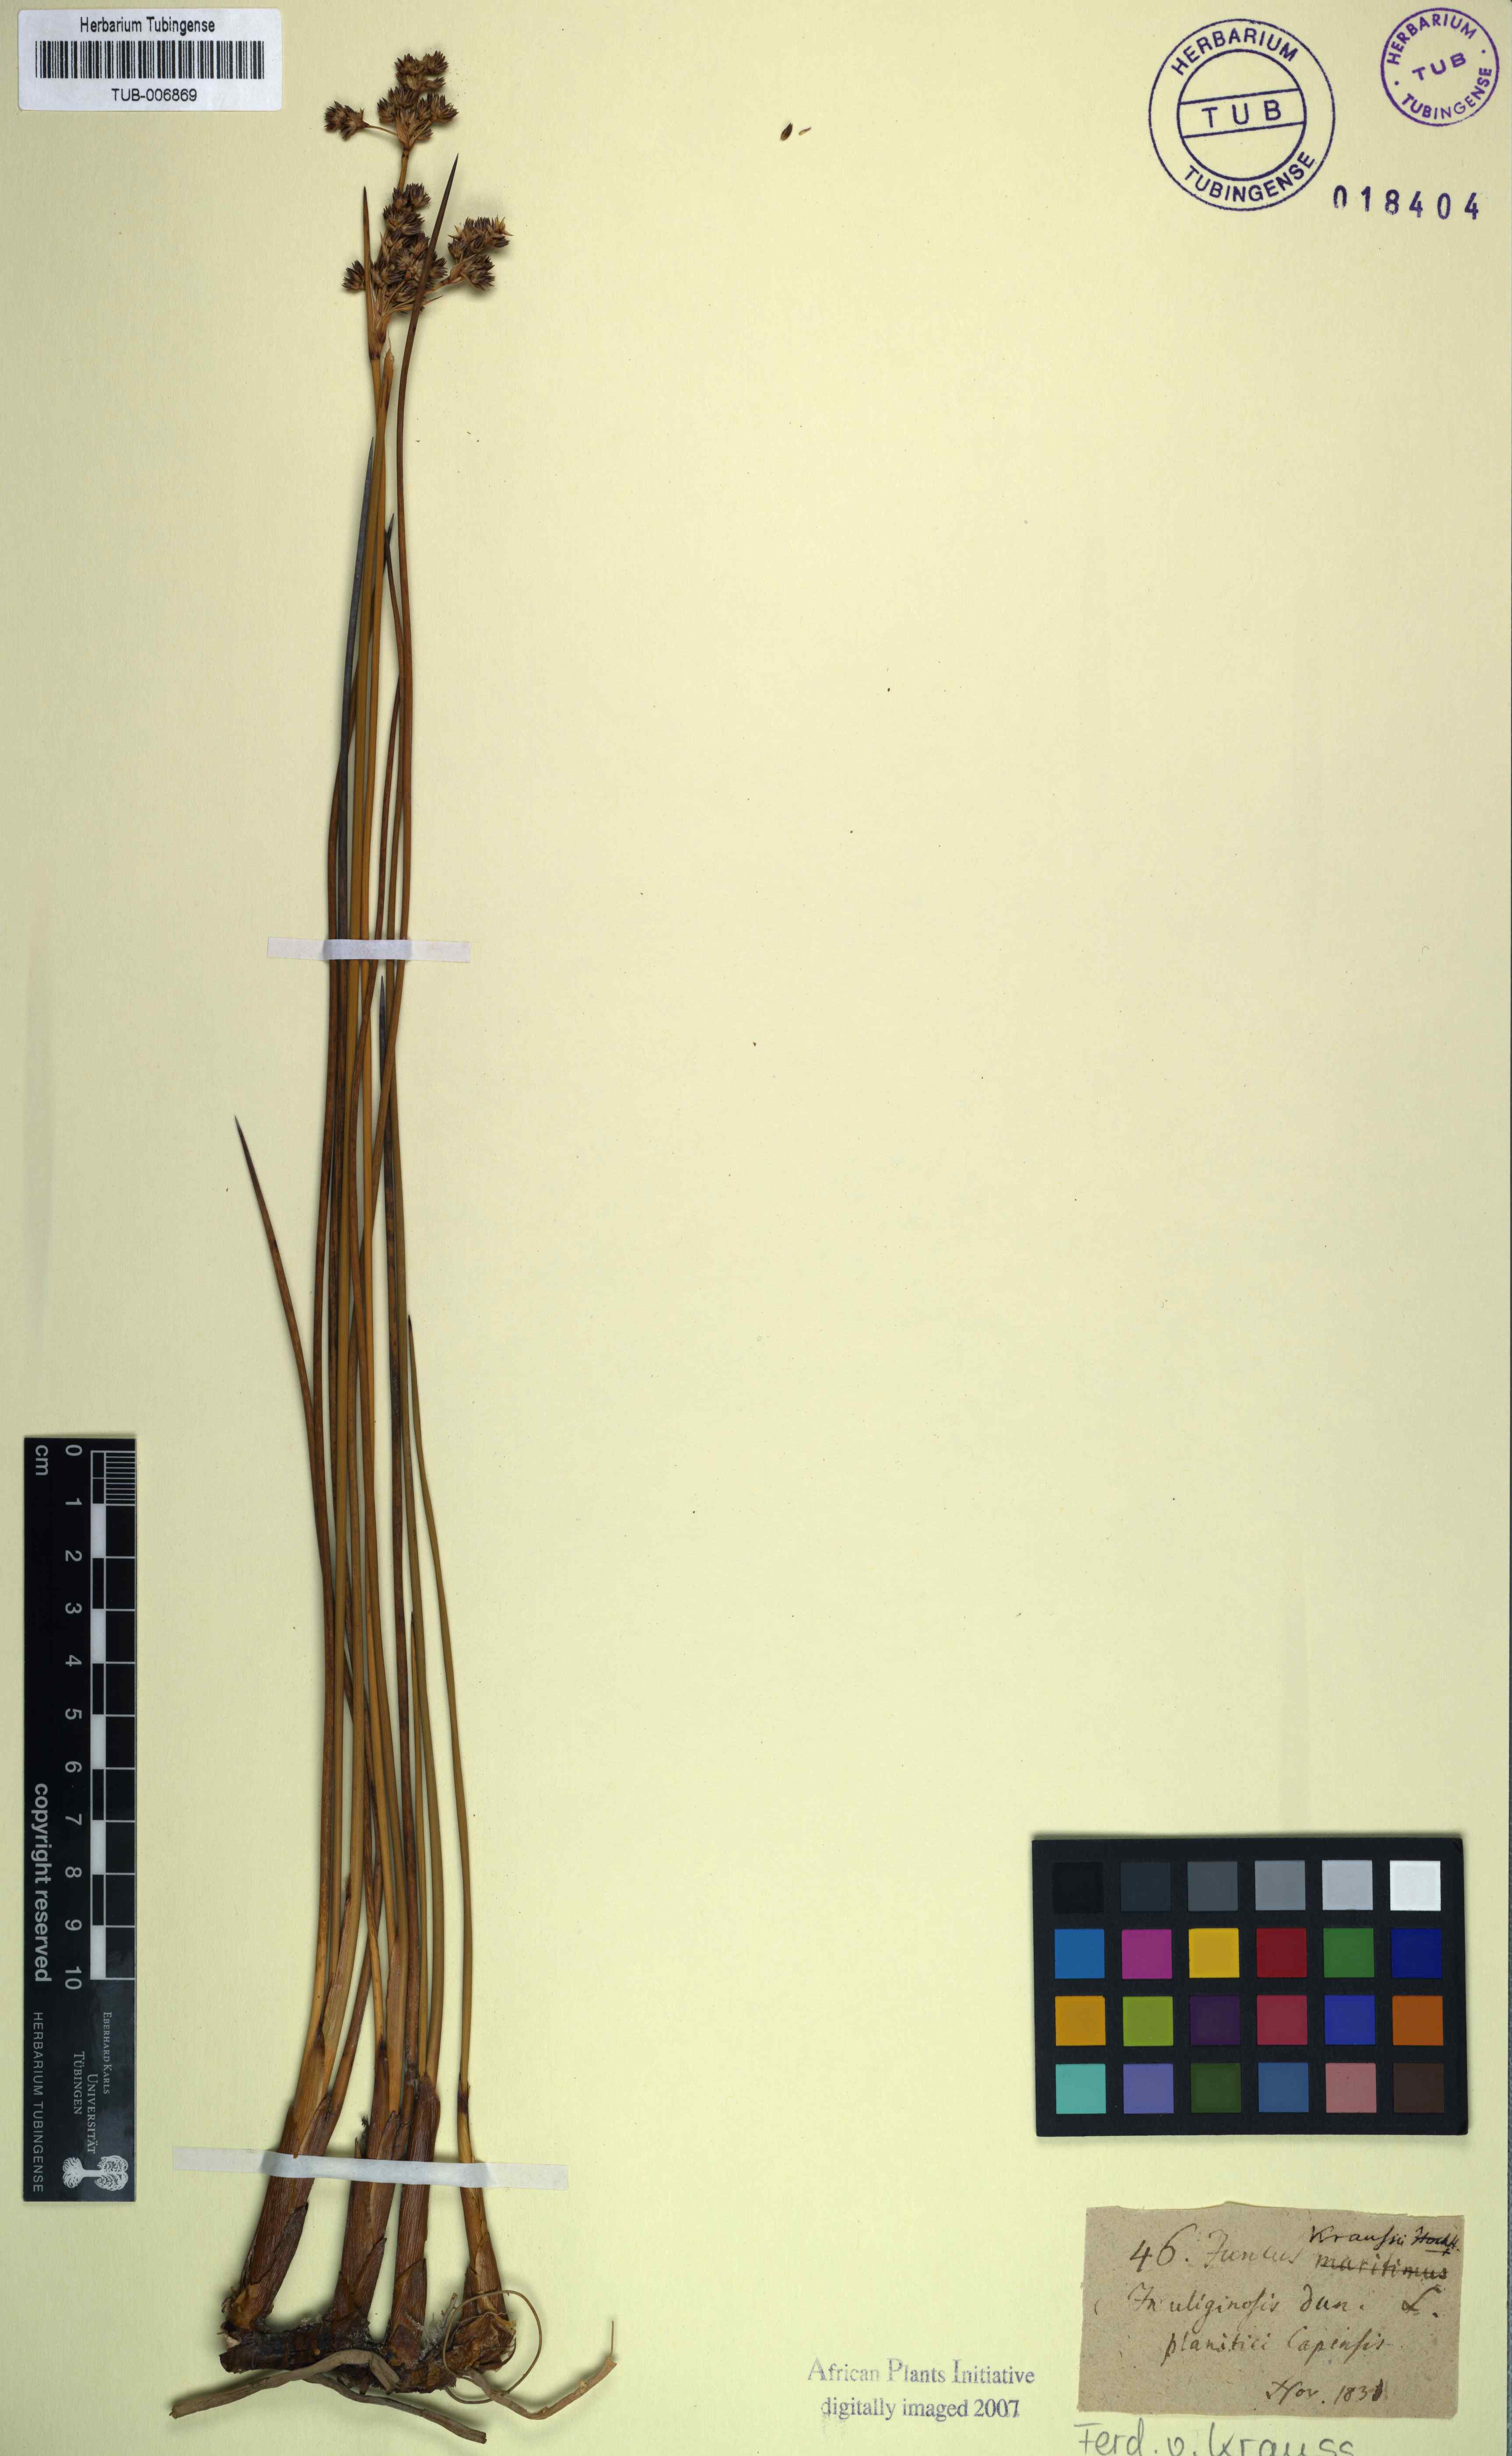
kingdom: Plantae
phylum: Tracheophyta
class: Liliopsida
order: Poales
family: Juncaceae
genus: Juncus
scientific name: Juncus kraussii
